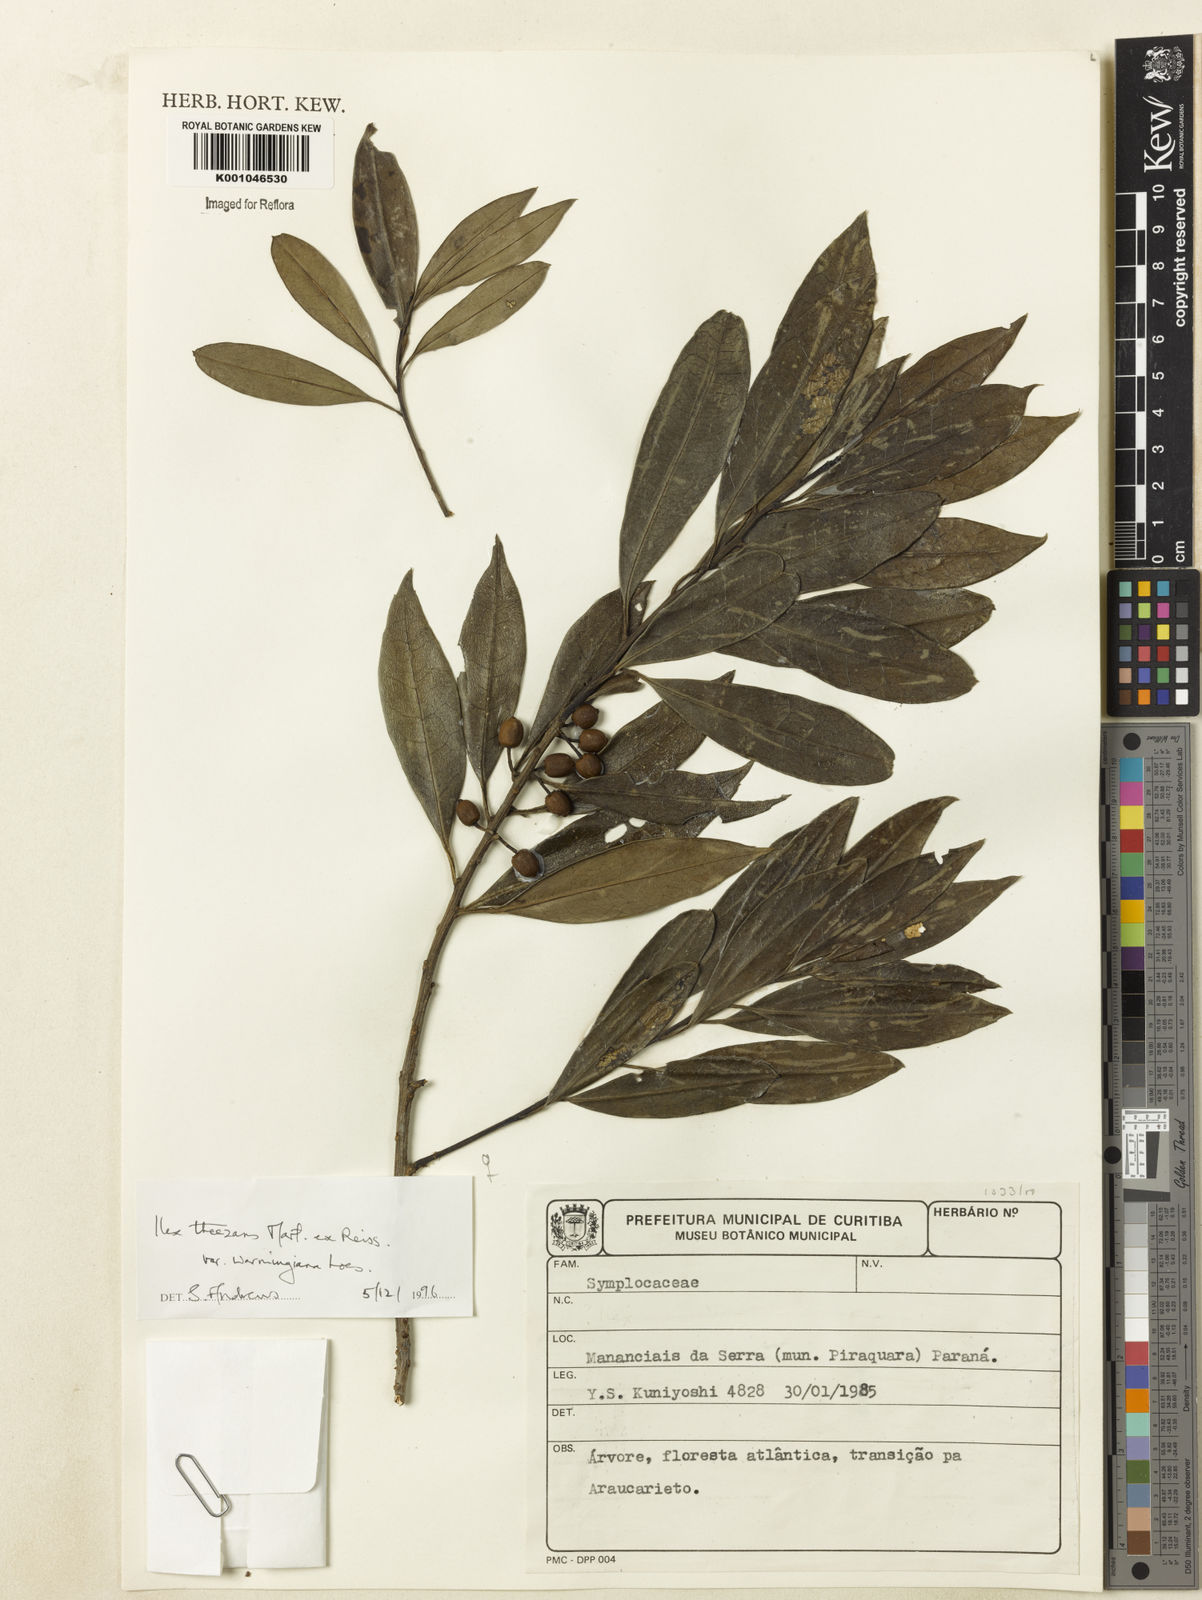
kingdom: Plantae
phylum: Tracheophyta
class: Magnoliopsida
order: Aquifoliales
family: Aquifoliaceae
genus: Ilex
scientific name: Ilex theezans
